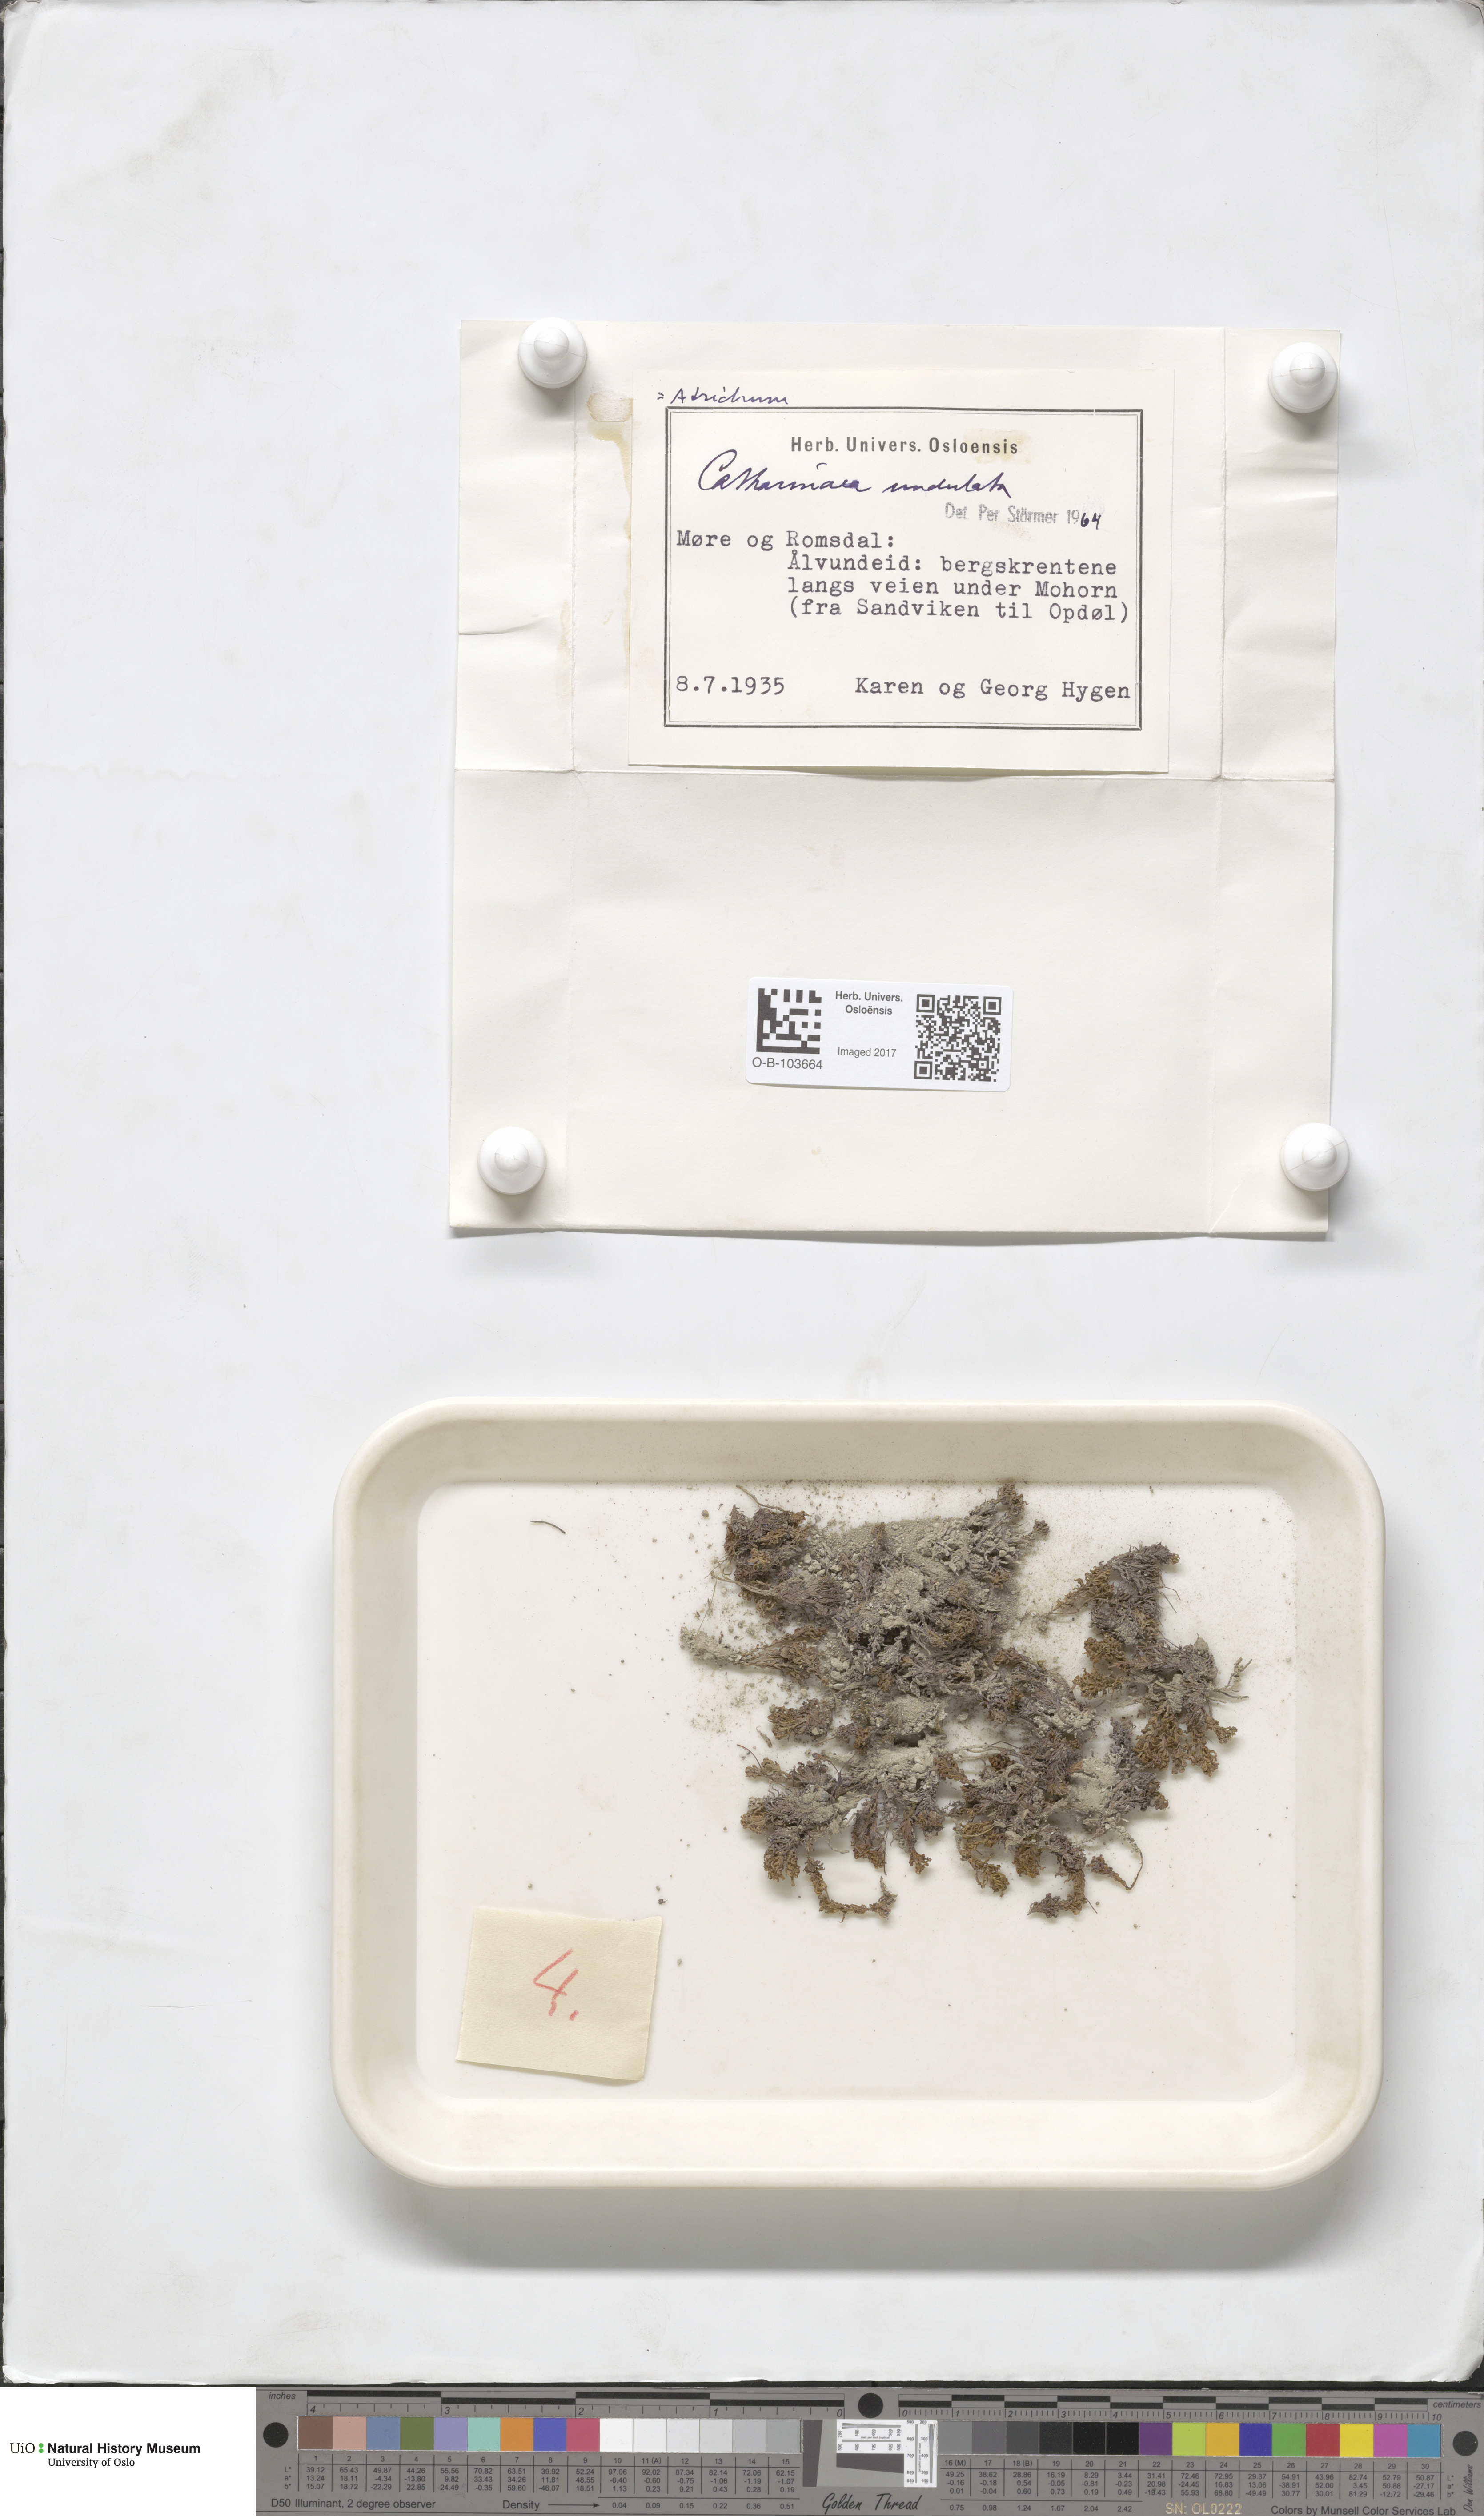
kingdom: Plantae
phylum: Bryophyta
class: Polytrichopsida
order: Polytrichales
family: Polytrichaceae
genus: Atrichum
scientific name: Atrichum undulatum
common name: Common smoothcap
